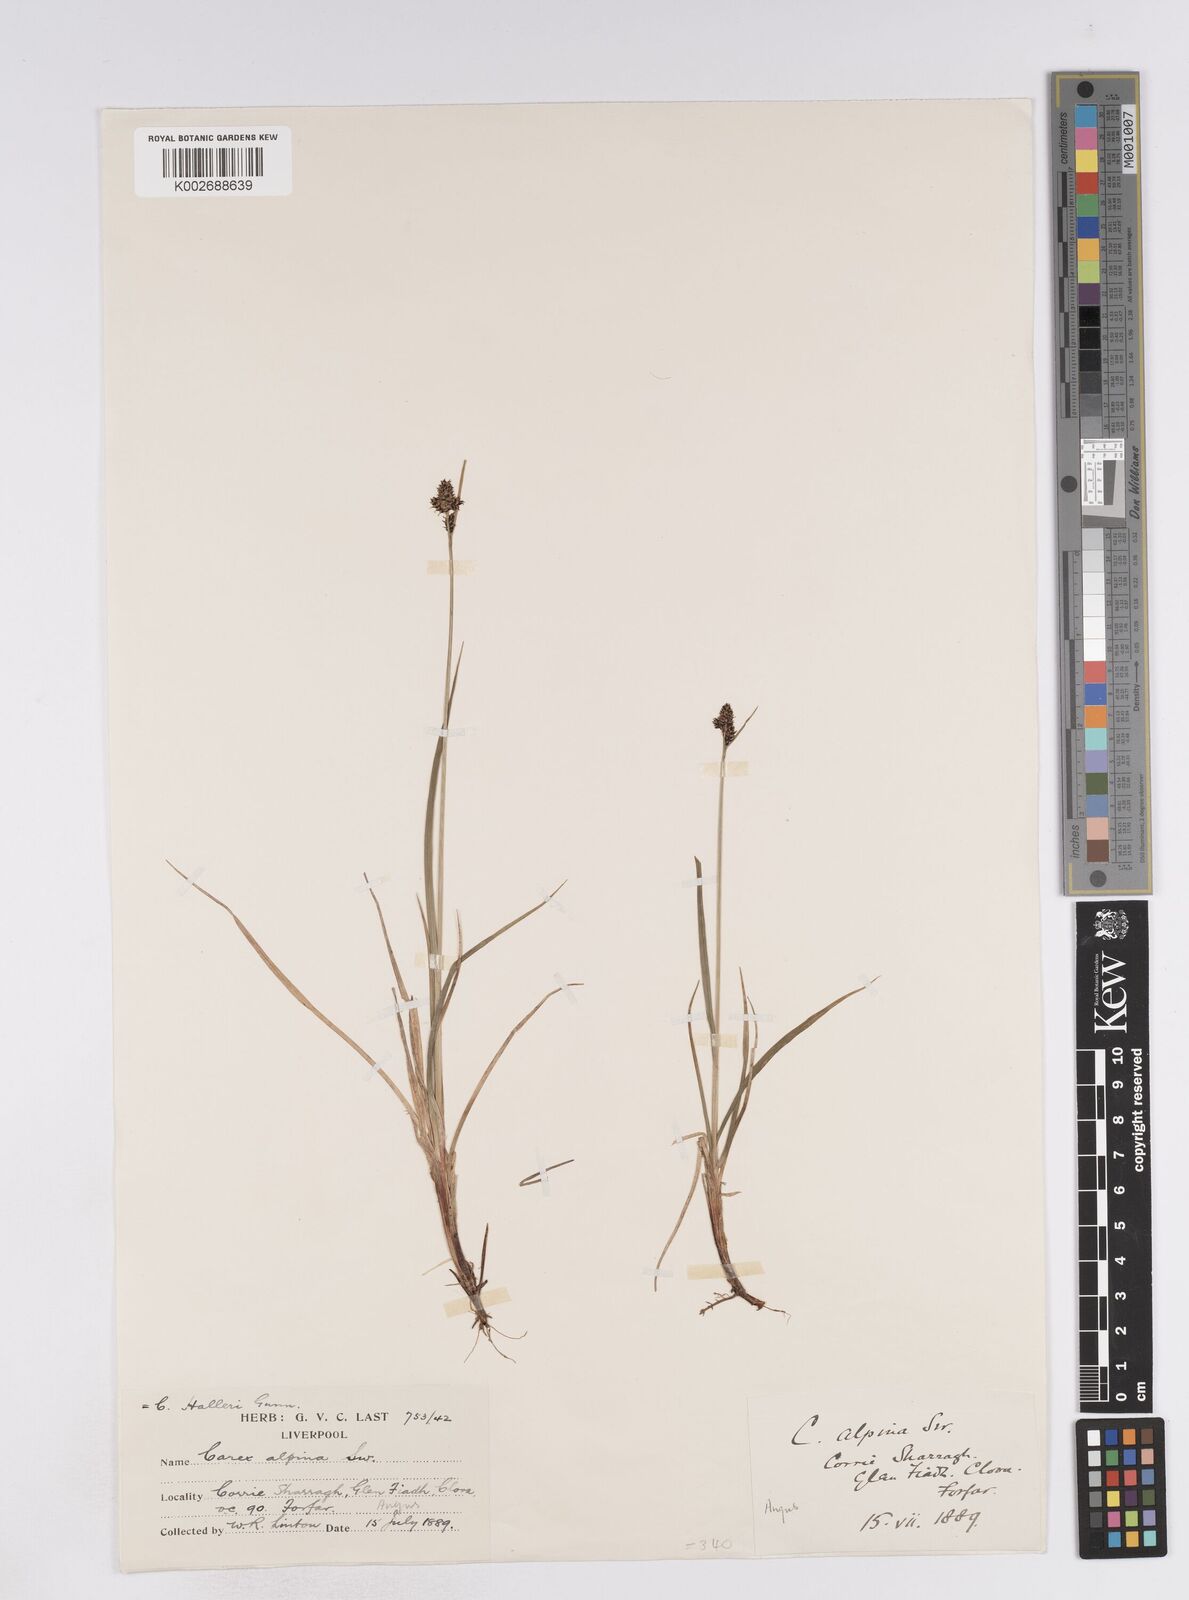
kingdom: Plantae
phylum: Tracheophyta
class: Liliopsida
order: Poales
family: Cyperaceae
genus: Carex
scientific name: Carex norvegica
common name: Close-headed alpine-sedge
